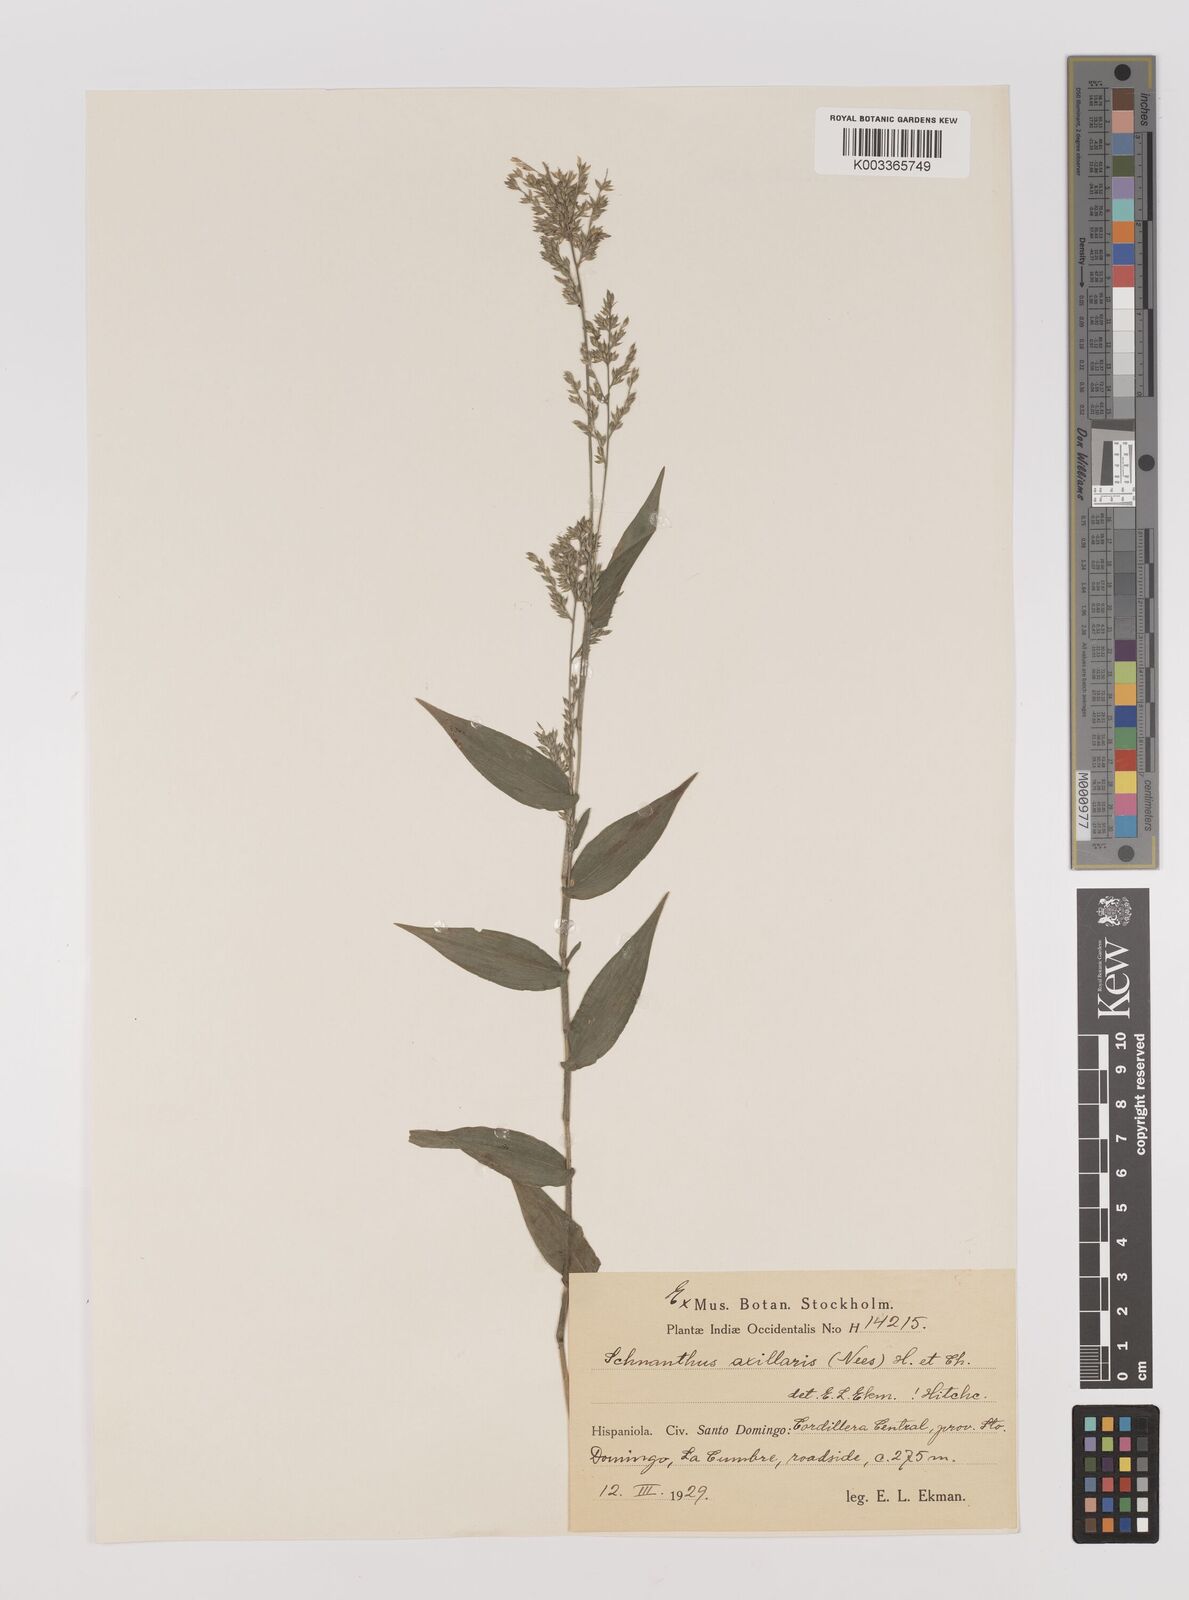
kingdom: Plantae
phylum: Tracheophyta
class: Liliopsida
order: Poales
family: Poaceae
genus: Ichnanthus
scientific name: Ichnanthus pallens
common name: Water grass
